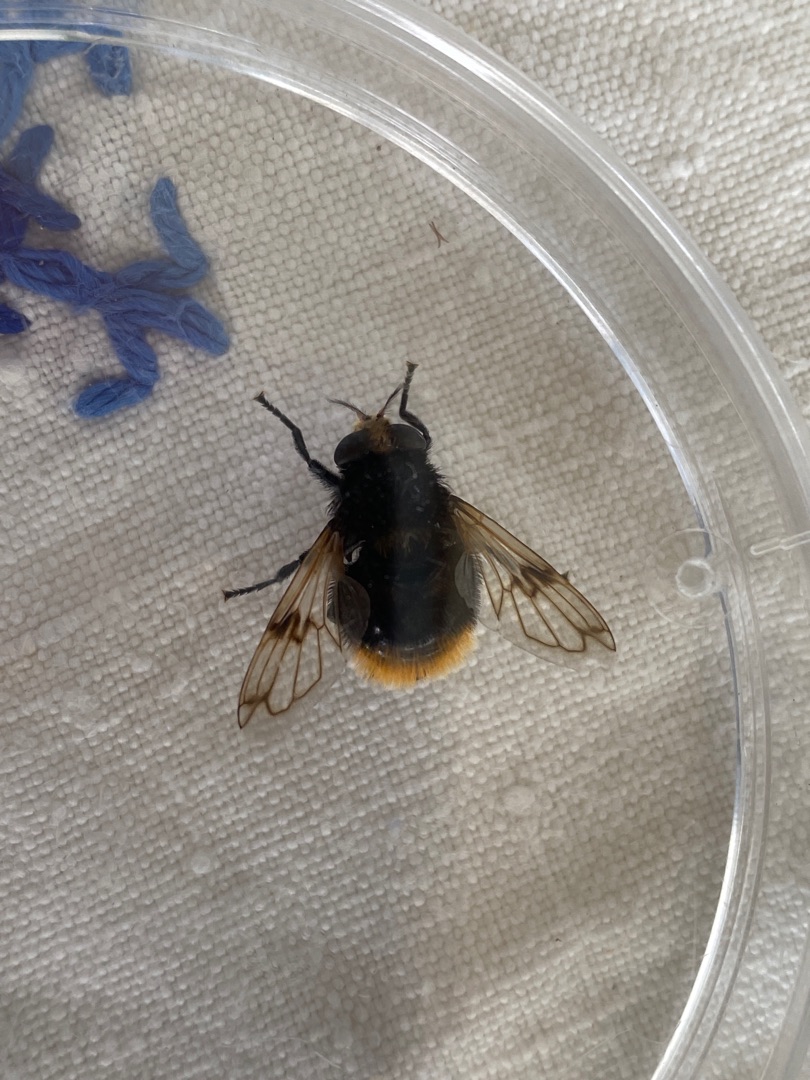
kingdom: Animalia
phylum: Arthropoda
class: Insecta
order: Diptera
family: Syrphidae
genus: Volucella
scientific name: Volucella bombylans
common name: Foranderlig humlesvirreflue
